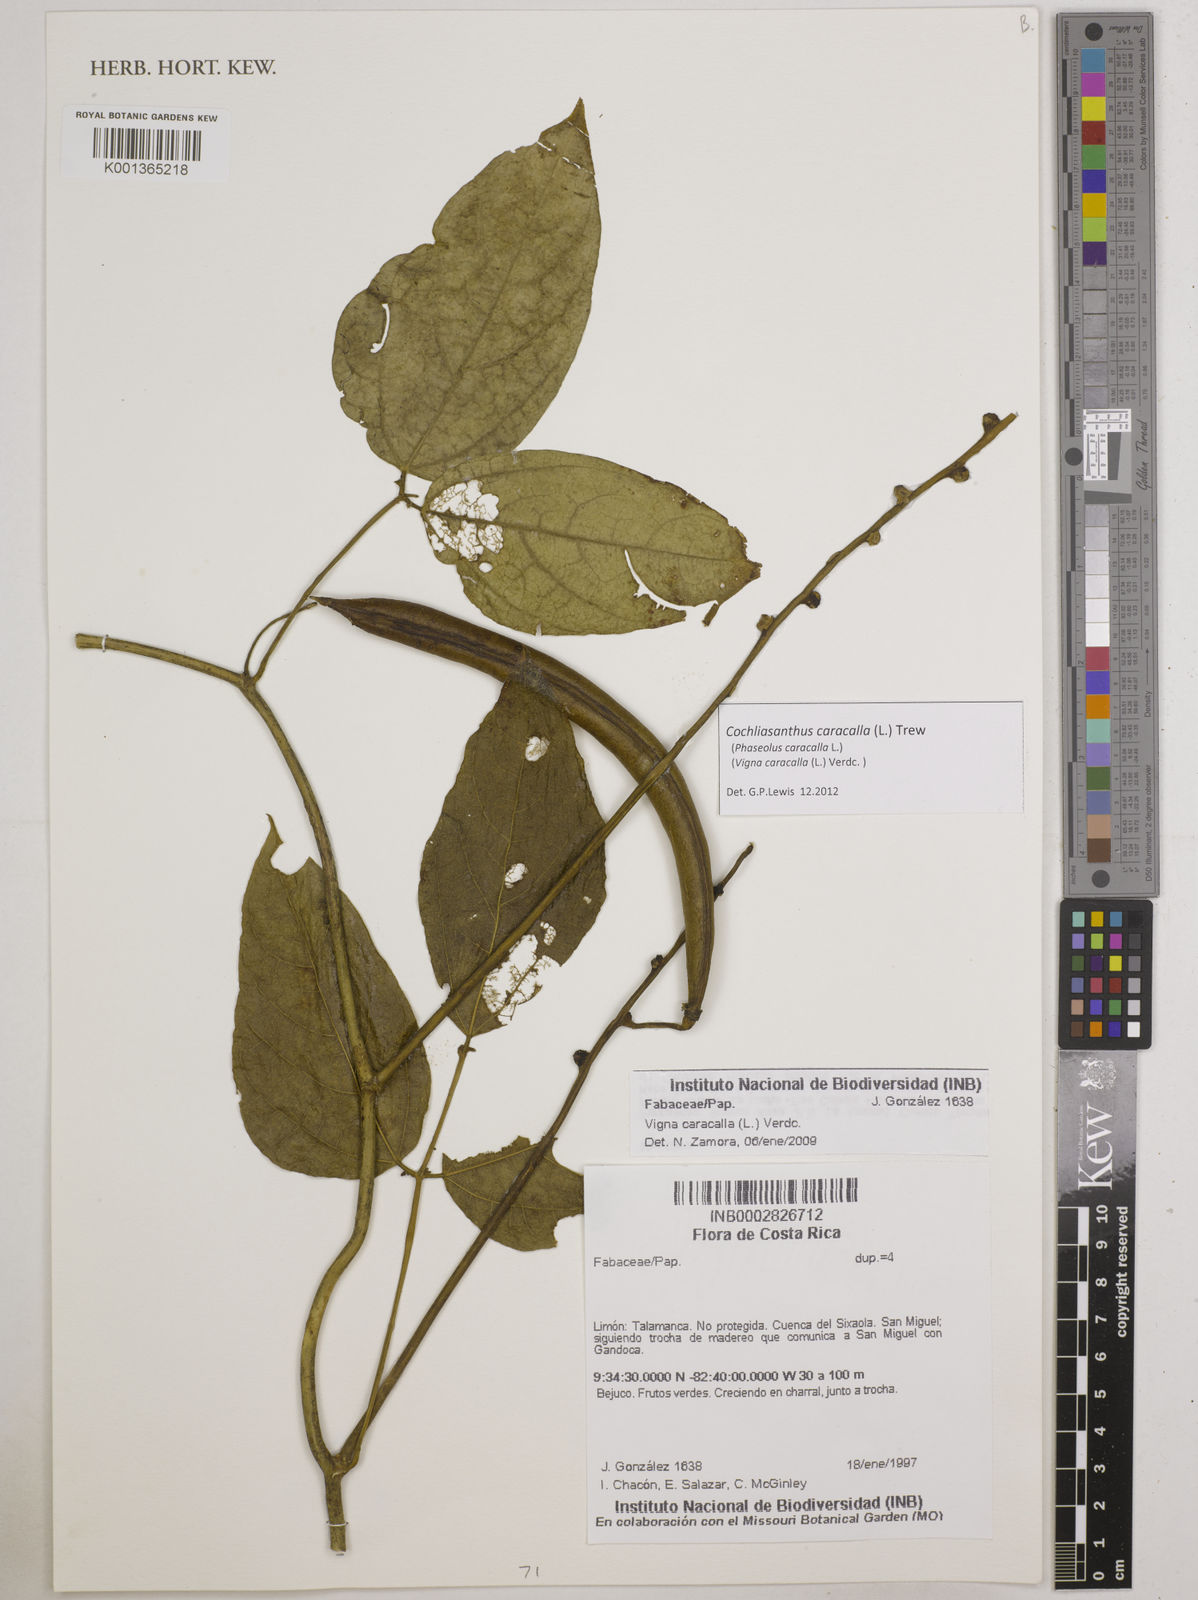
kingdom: Plantae
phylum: Tracheophyta
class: Magnoliopsida
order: Fabales
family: Fabaceae
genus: Cochliasanthus
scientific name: Cochliasanthus caracalla
